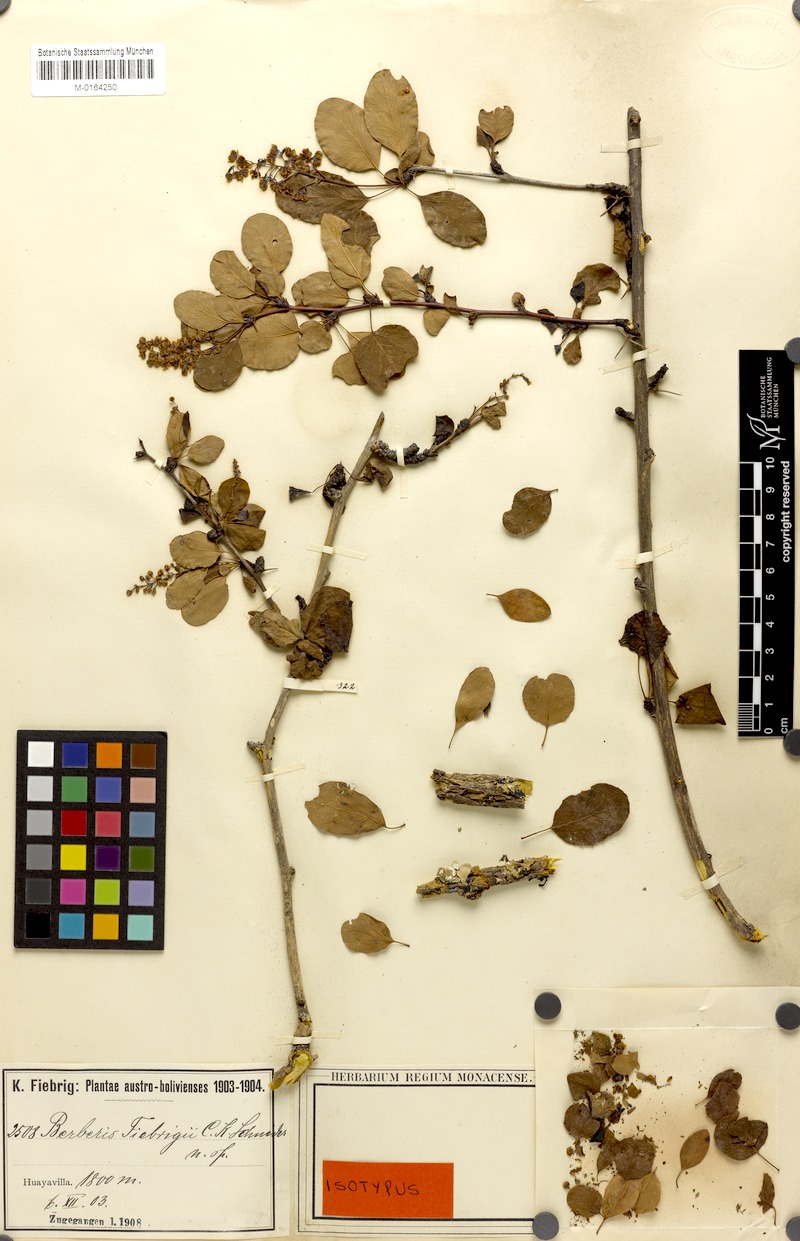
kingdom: Plantae
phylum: Tracheophyta
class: Magnoliopsida
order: Ranunculales
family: Berberidaceae
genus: Berberis
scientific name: Berberis fiebrigii
